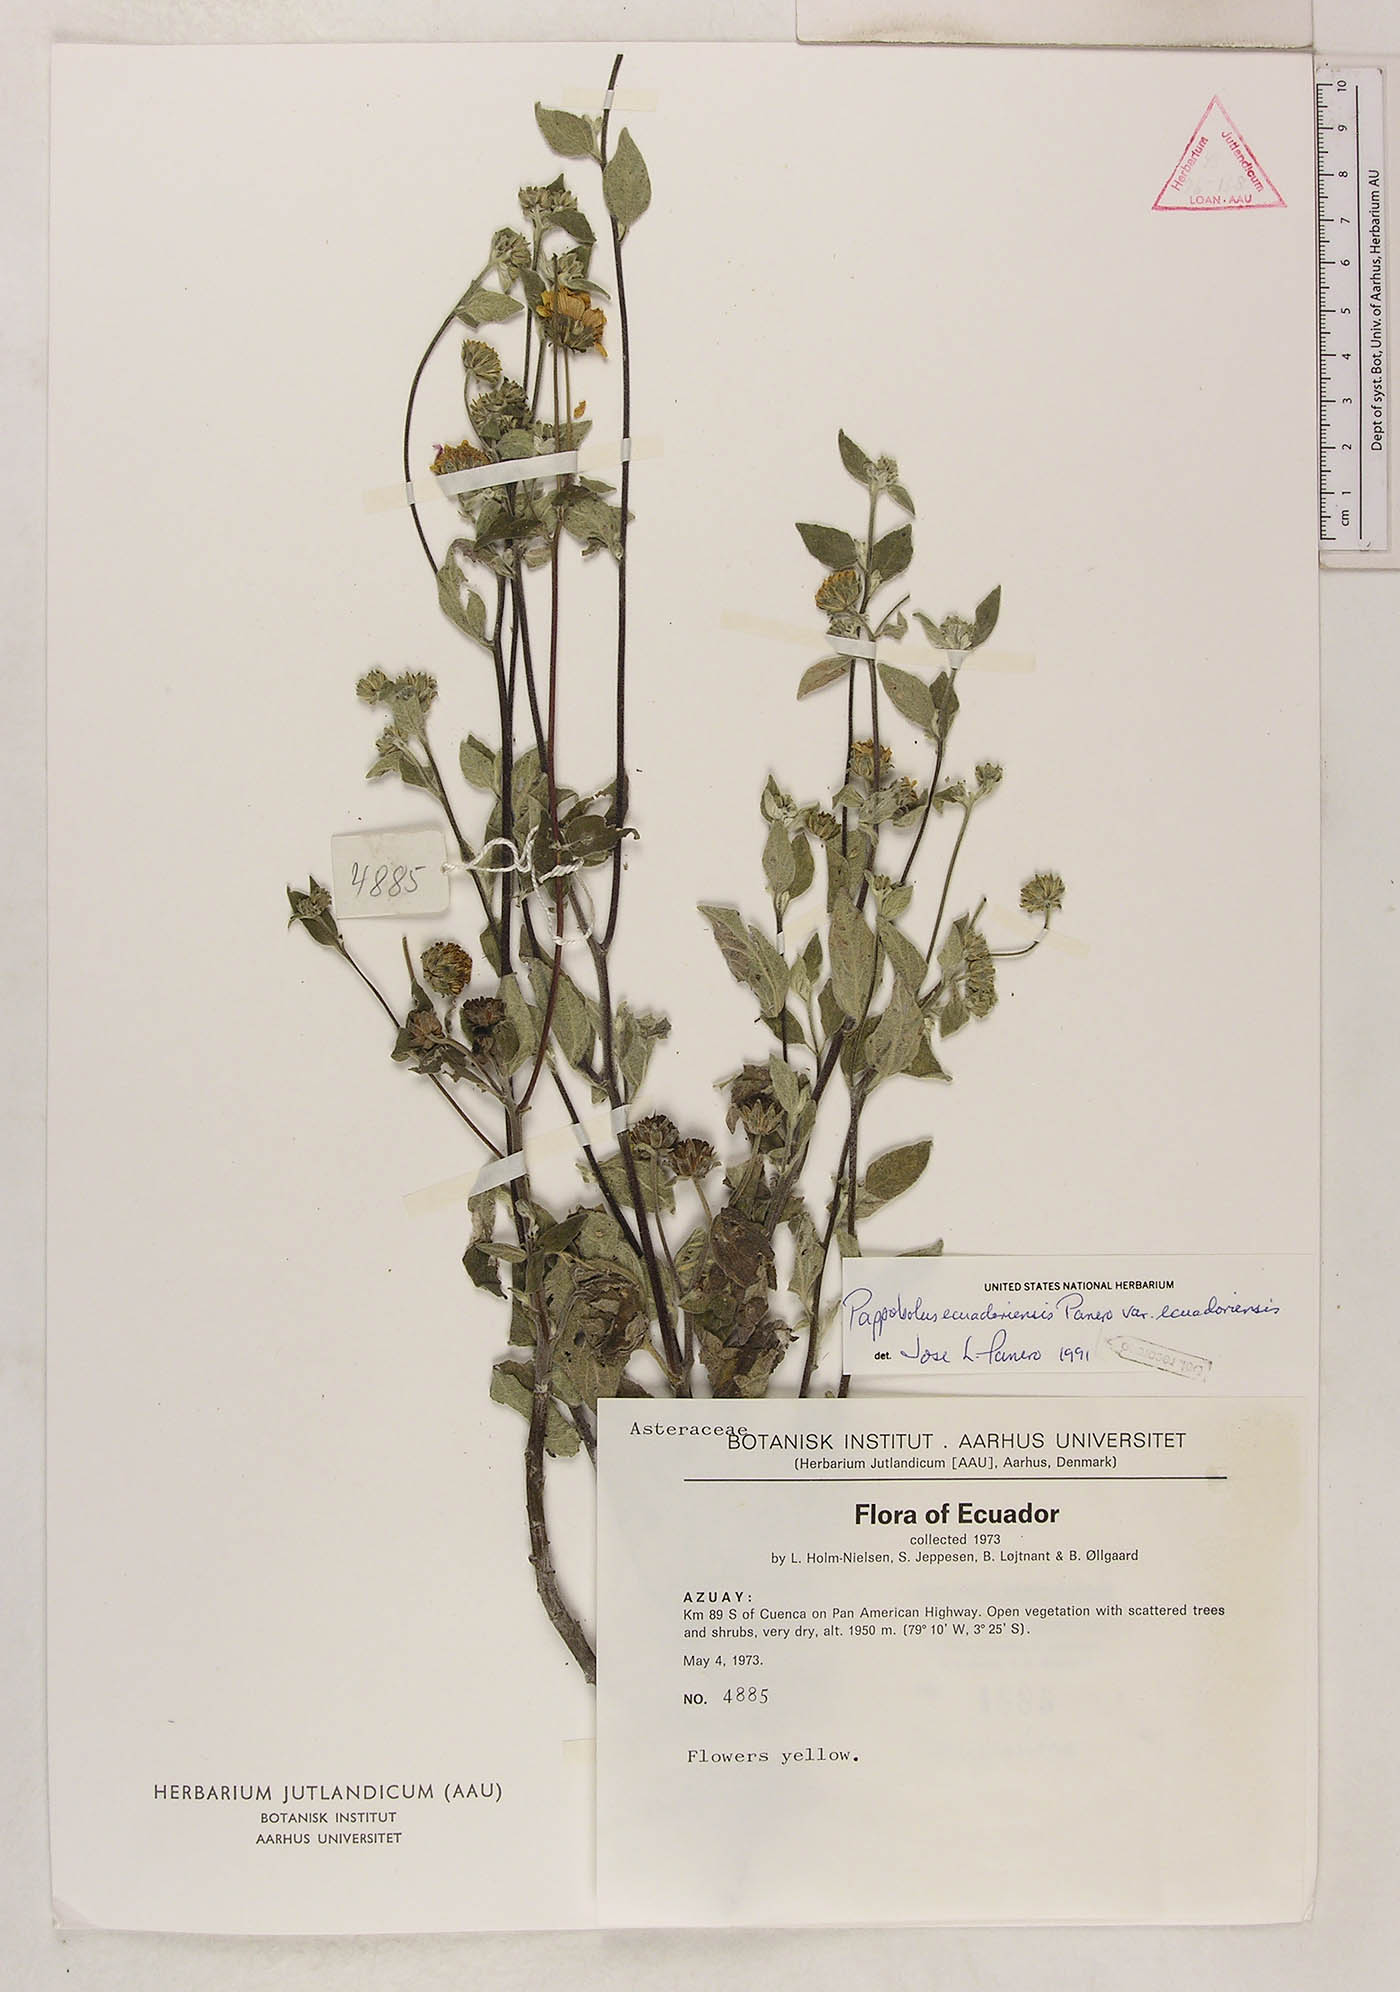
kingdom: Plantae
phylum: Tracheophyta
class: Magnoliopsida
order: Asterales
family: Asteraceae
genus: Pappobolus
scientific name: Pappobolus ecuadoriensis
